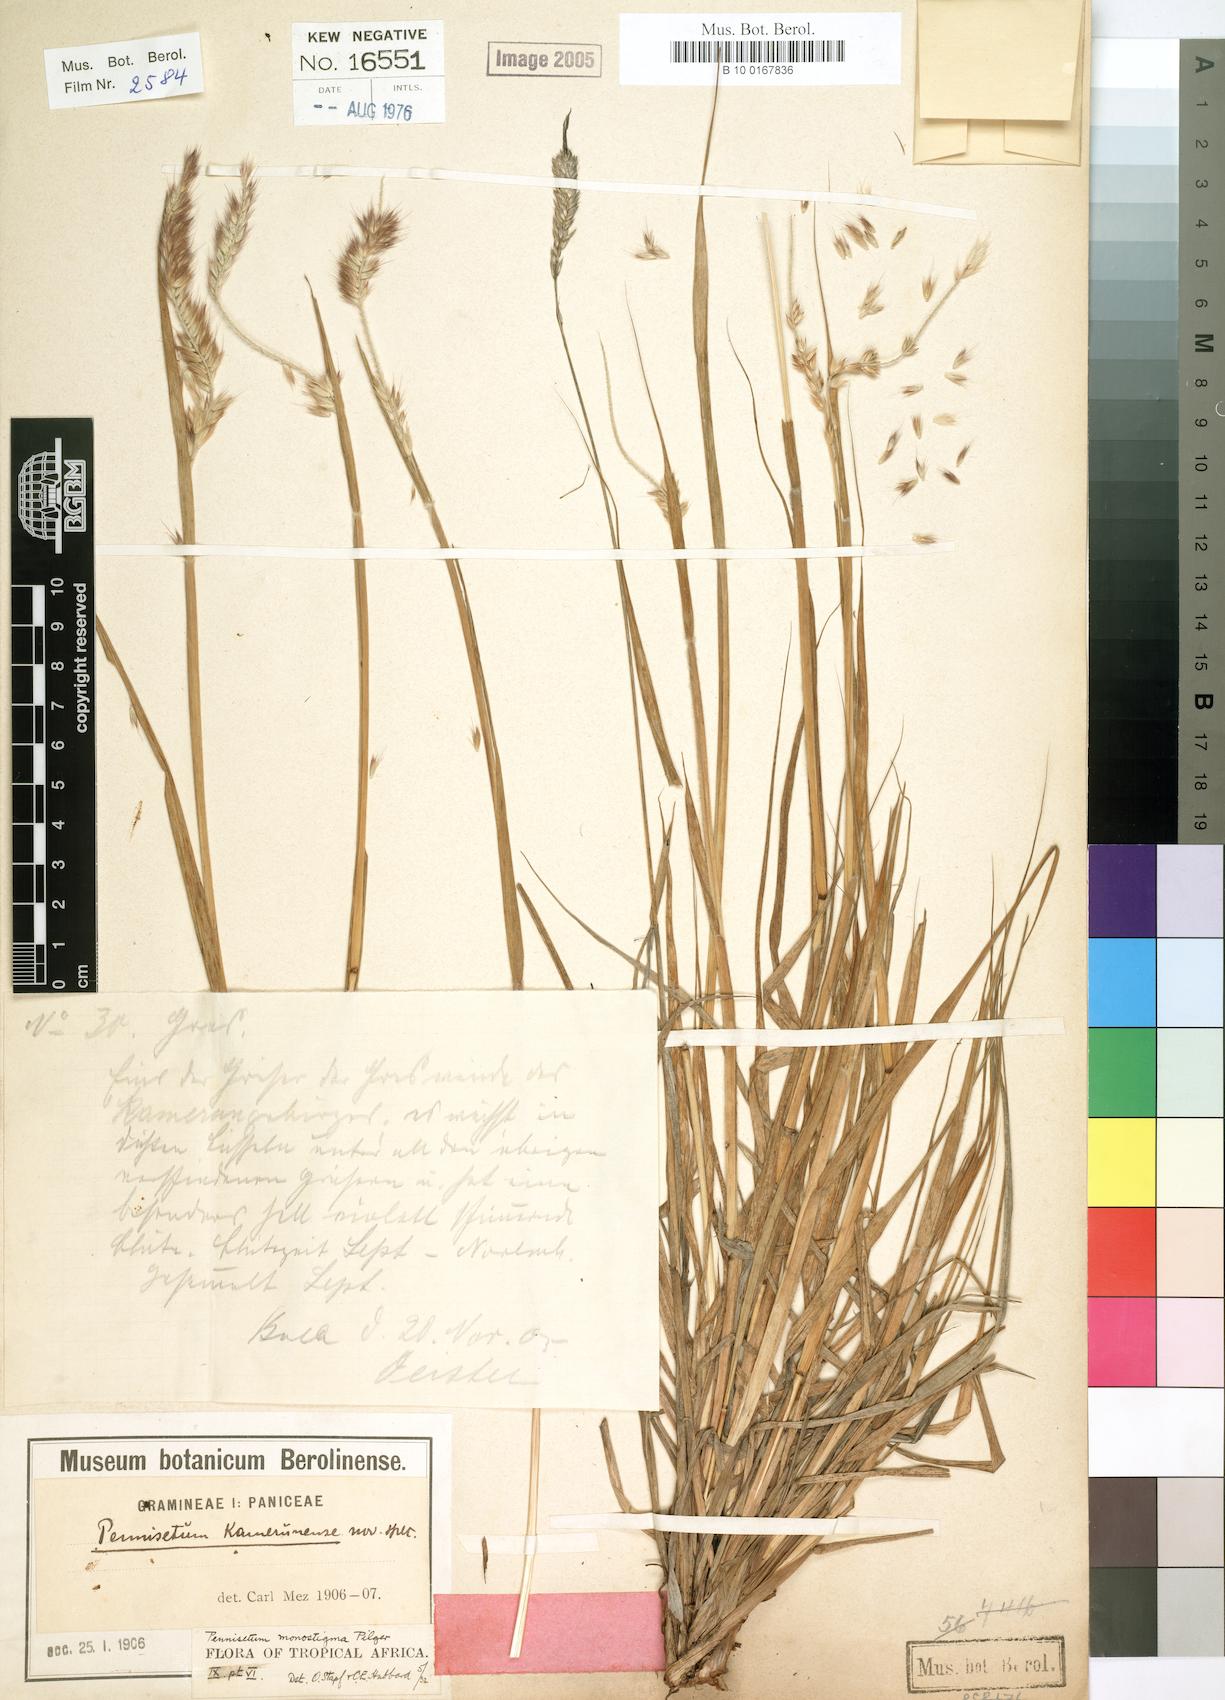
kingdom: Plantae
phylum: Tracheophyta
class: Liliopsida
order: Poales
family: Poaceae
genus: Cenchrus
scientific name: Cenchrus monostigma
